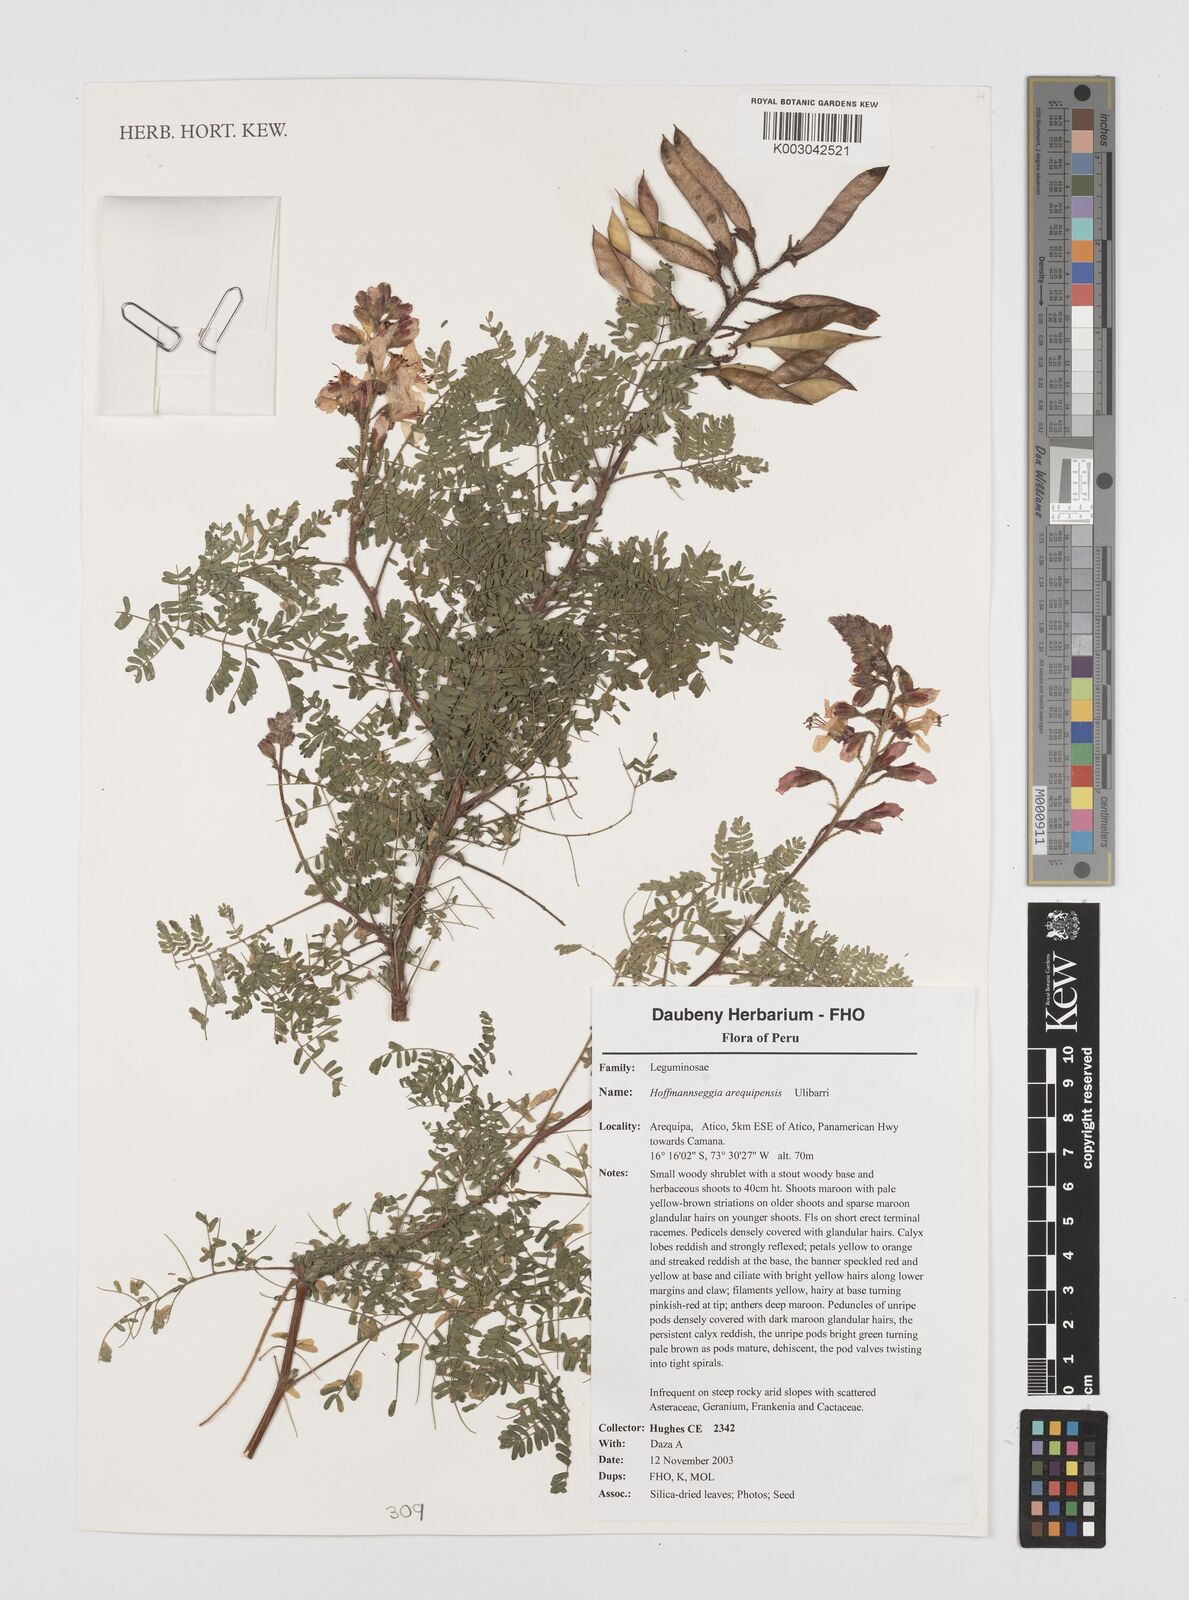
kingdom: Plantae
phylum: Tracheophyta
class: Magnoliopsida
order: Fabales
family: Fabaceae
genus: Hoffmannseggia
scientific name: Hoffmannseggia arequipensis
